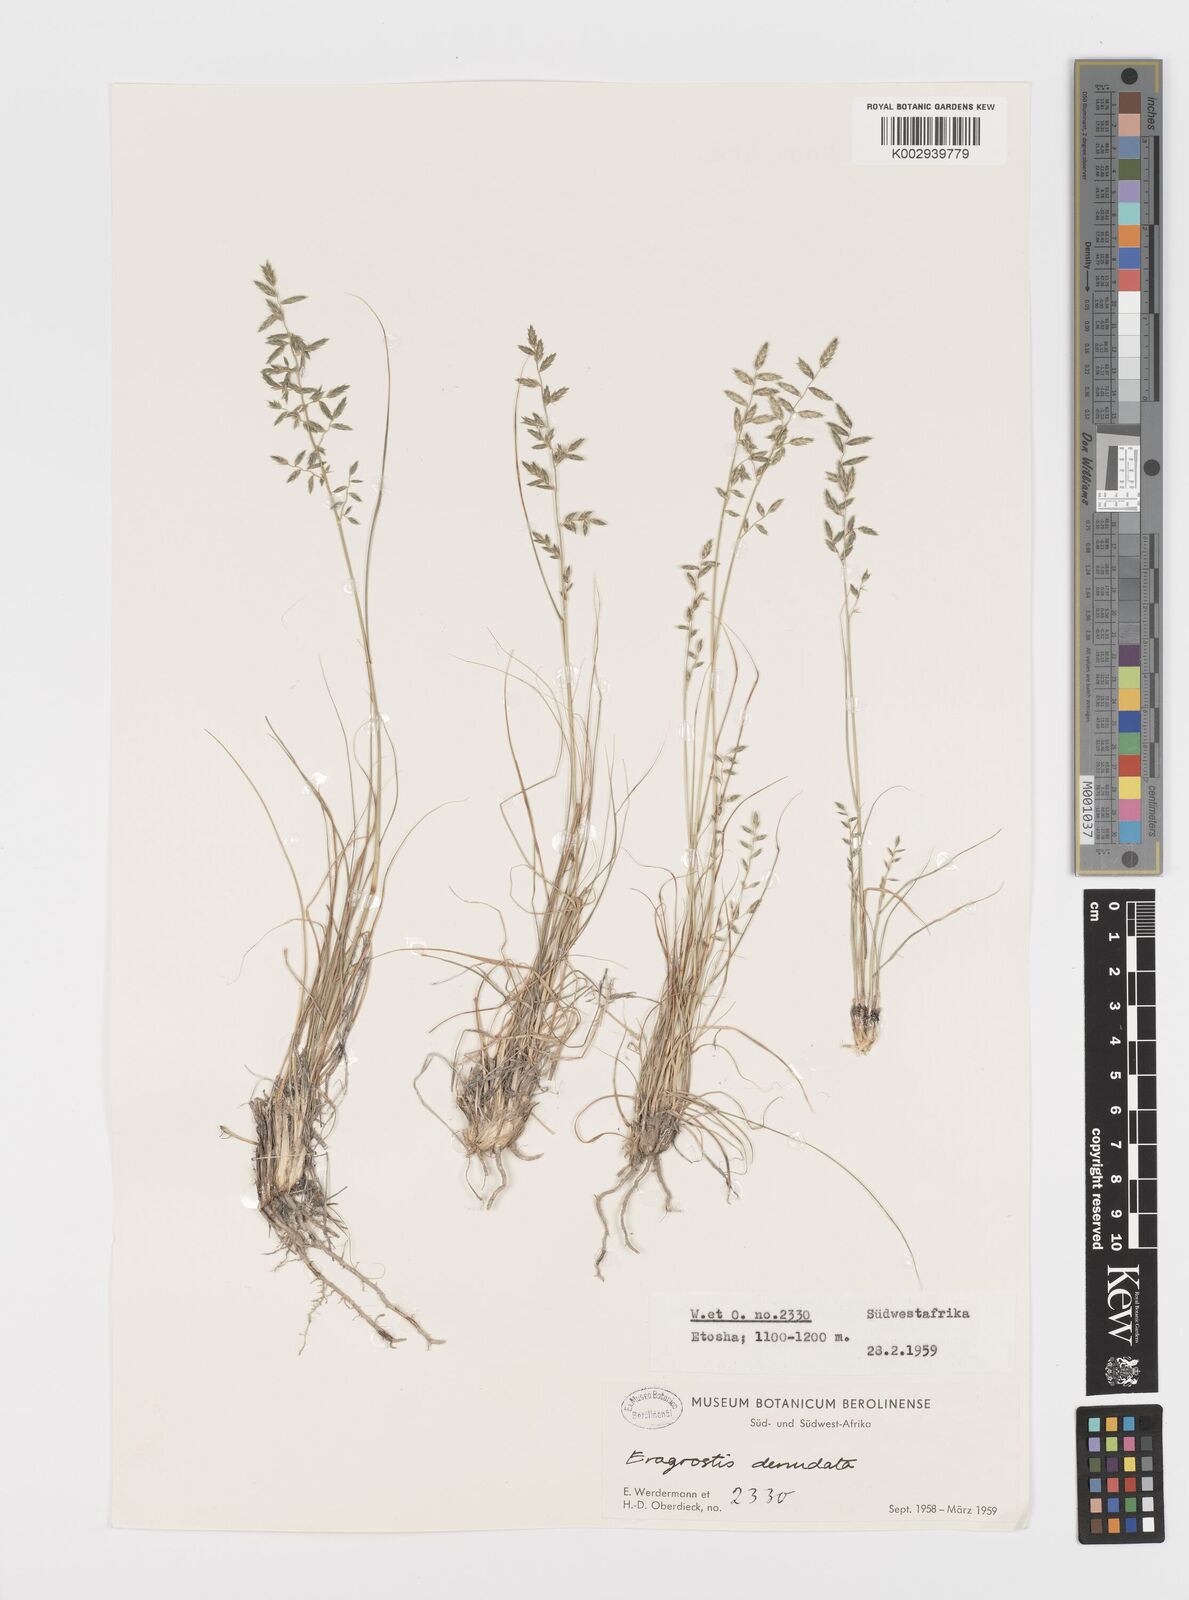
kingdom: Plantae
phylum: Tracheophyta
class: Liliopsida
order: Poales
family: Poaceae
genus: Eragrostis
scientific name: Eragrostis nindensis
